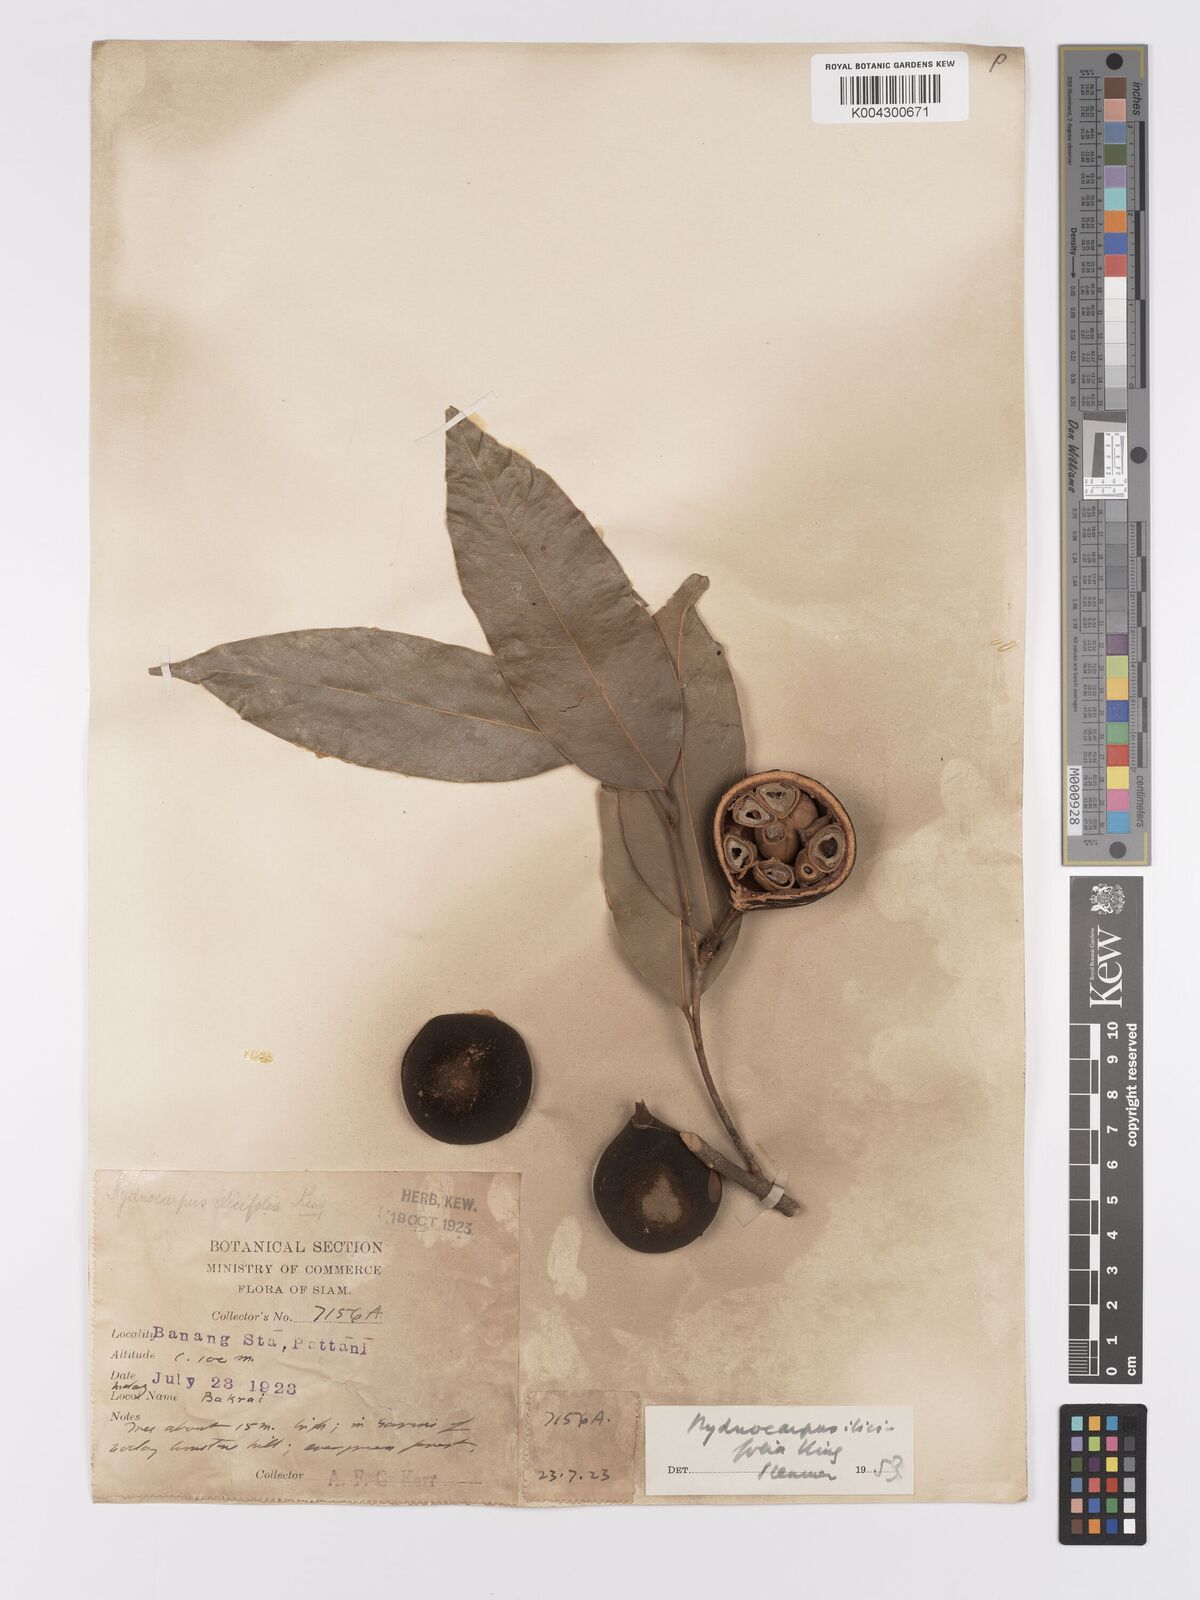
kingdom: Plantae
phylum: Tracheophyta
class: Magnoliopsida
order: Malpighiales
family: Achariaceae
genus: Hydnocarpus
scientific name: Hydnocarpus ilicifolius
